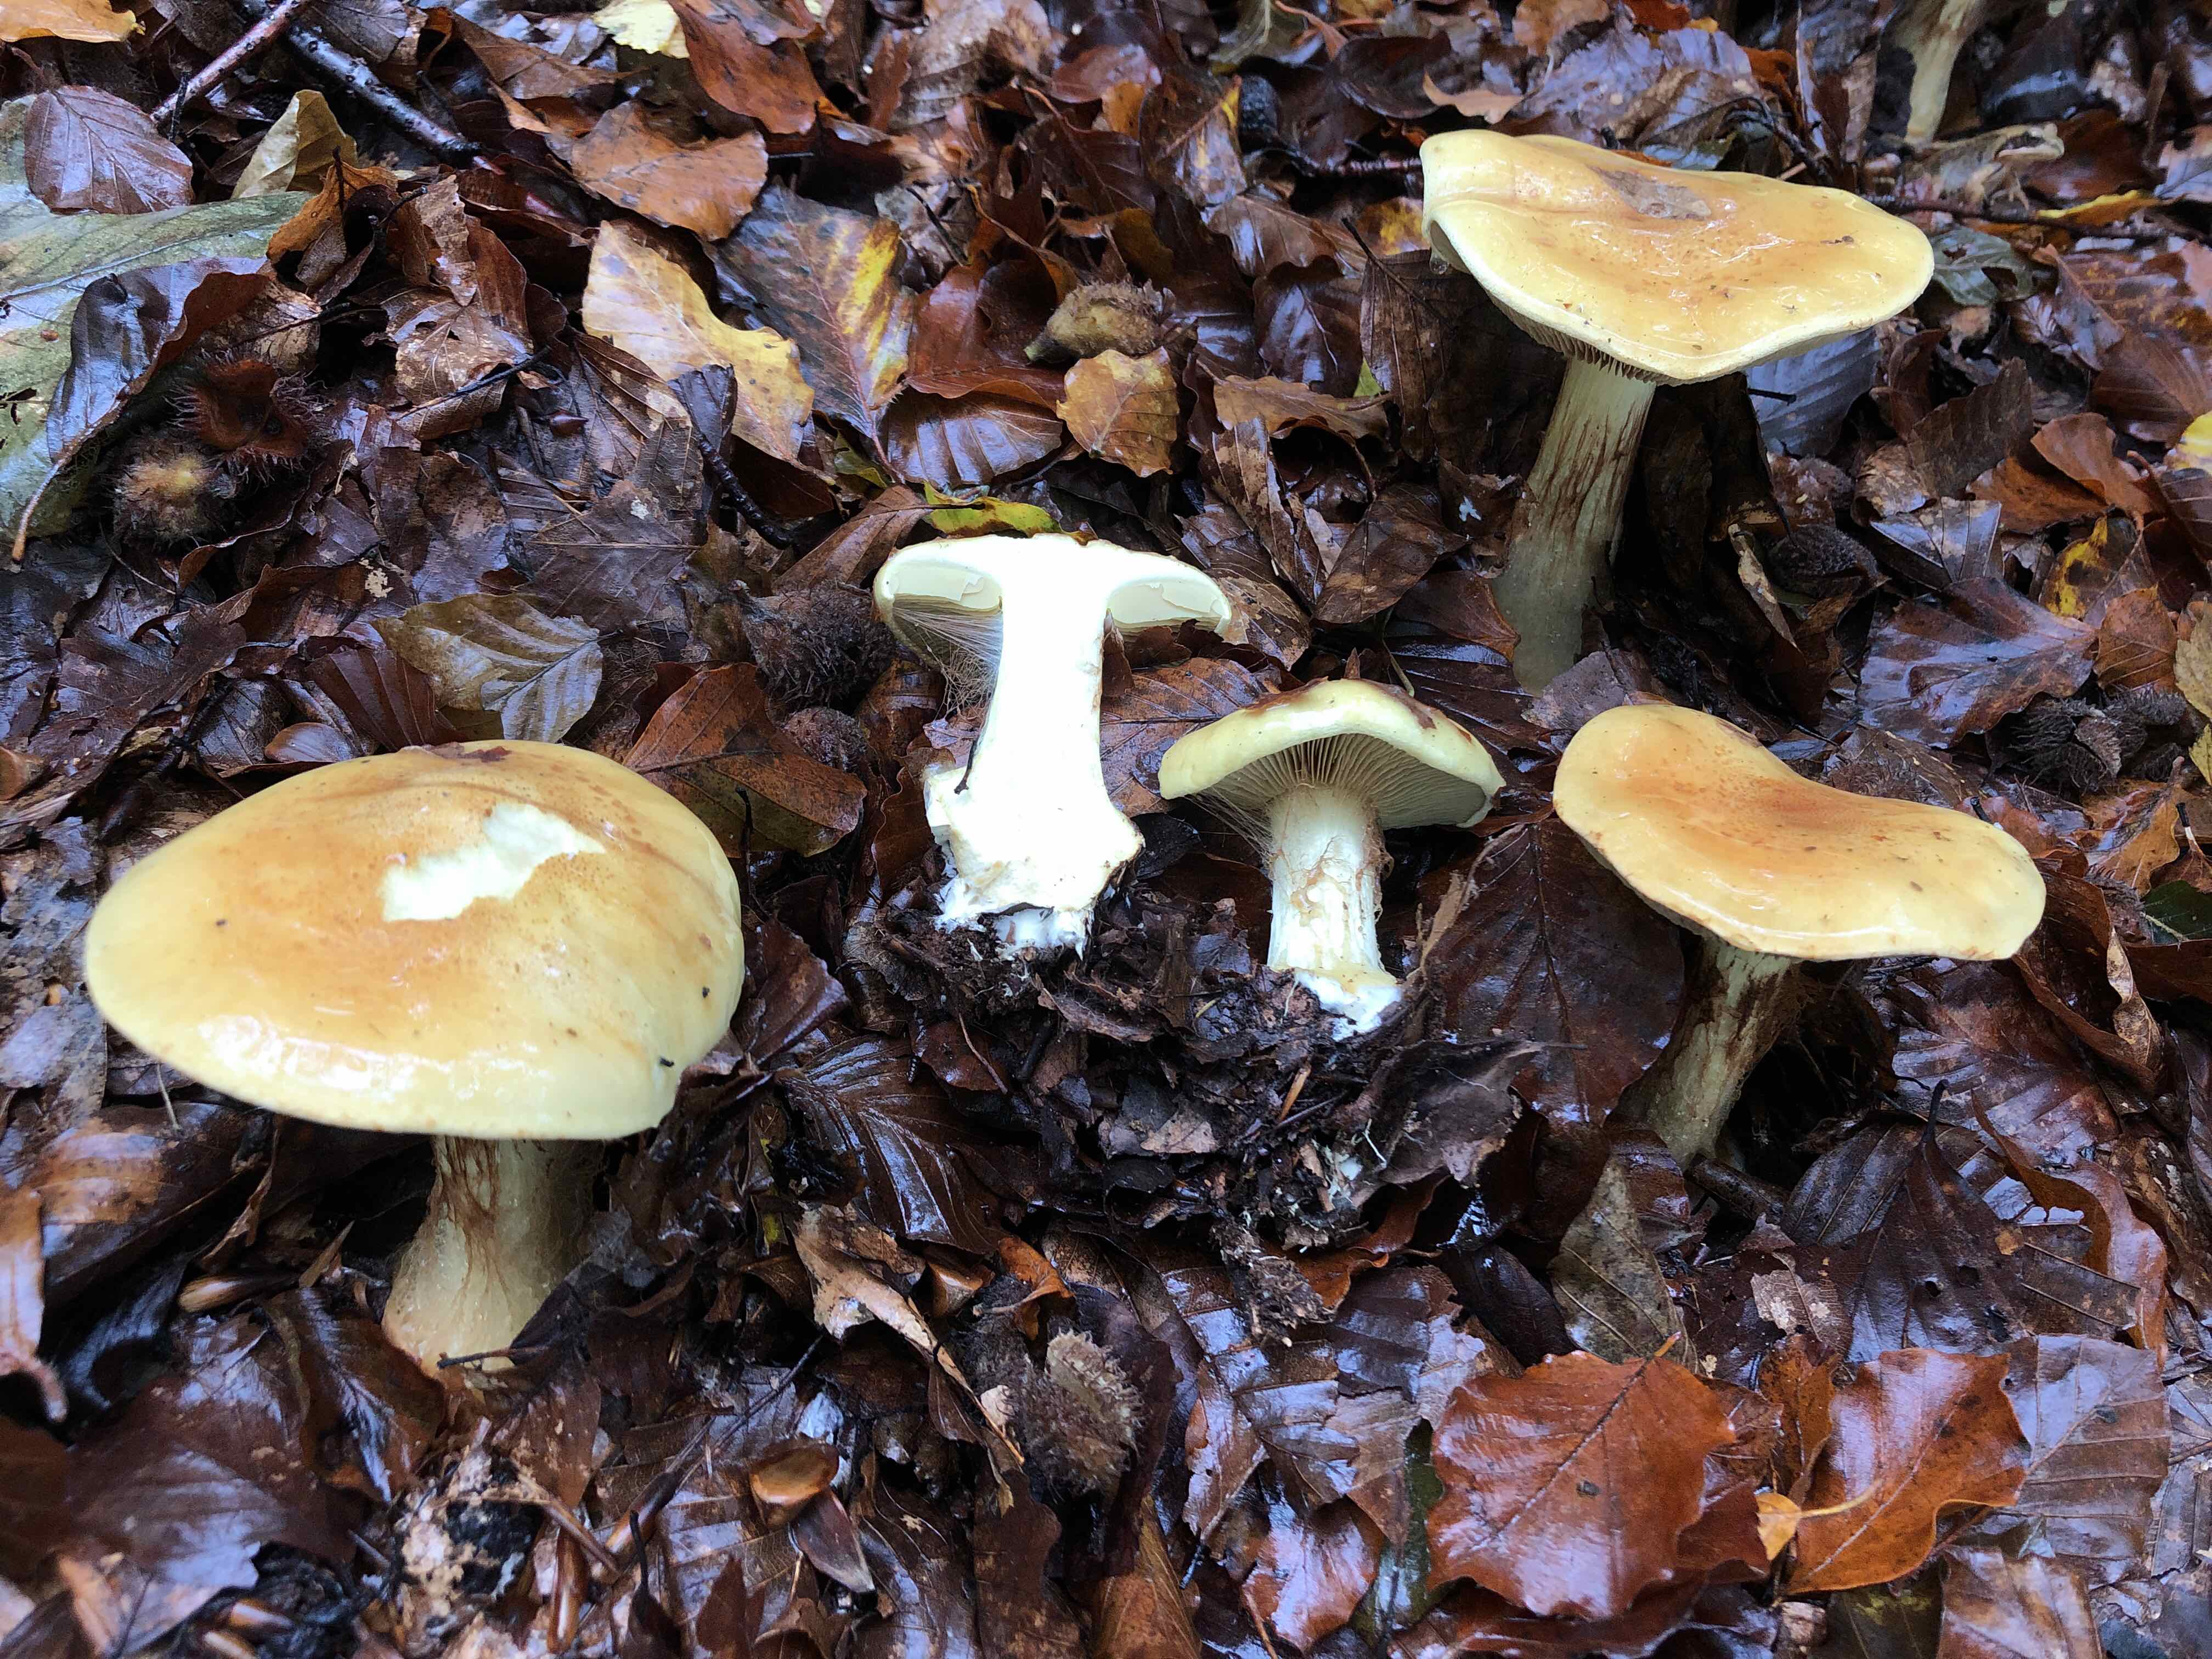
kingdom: Fungi
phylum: Basidiomycota
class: Agaricomycetes
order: Agaricales
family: Cortinariaceae
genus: Calonarius
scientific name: Calonarius elegantissimus
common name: orangegylden slørhat
